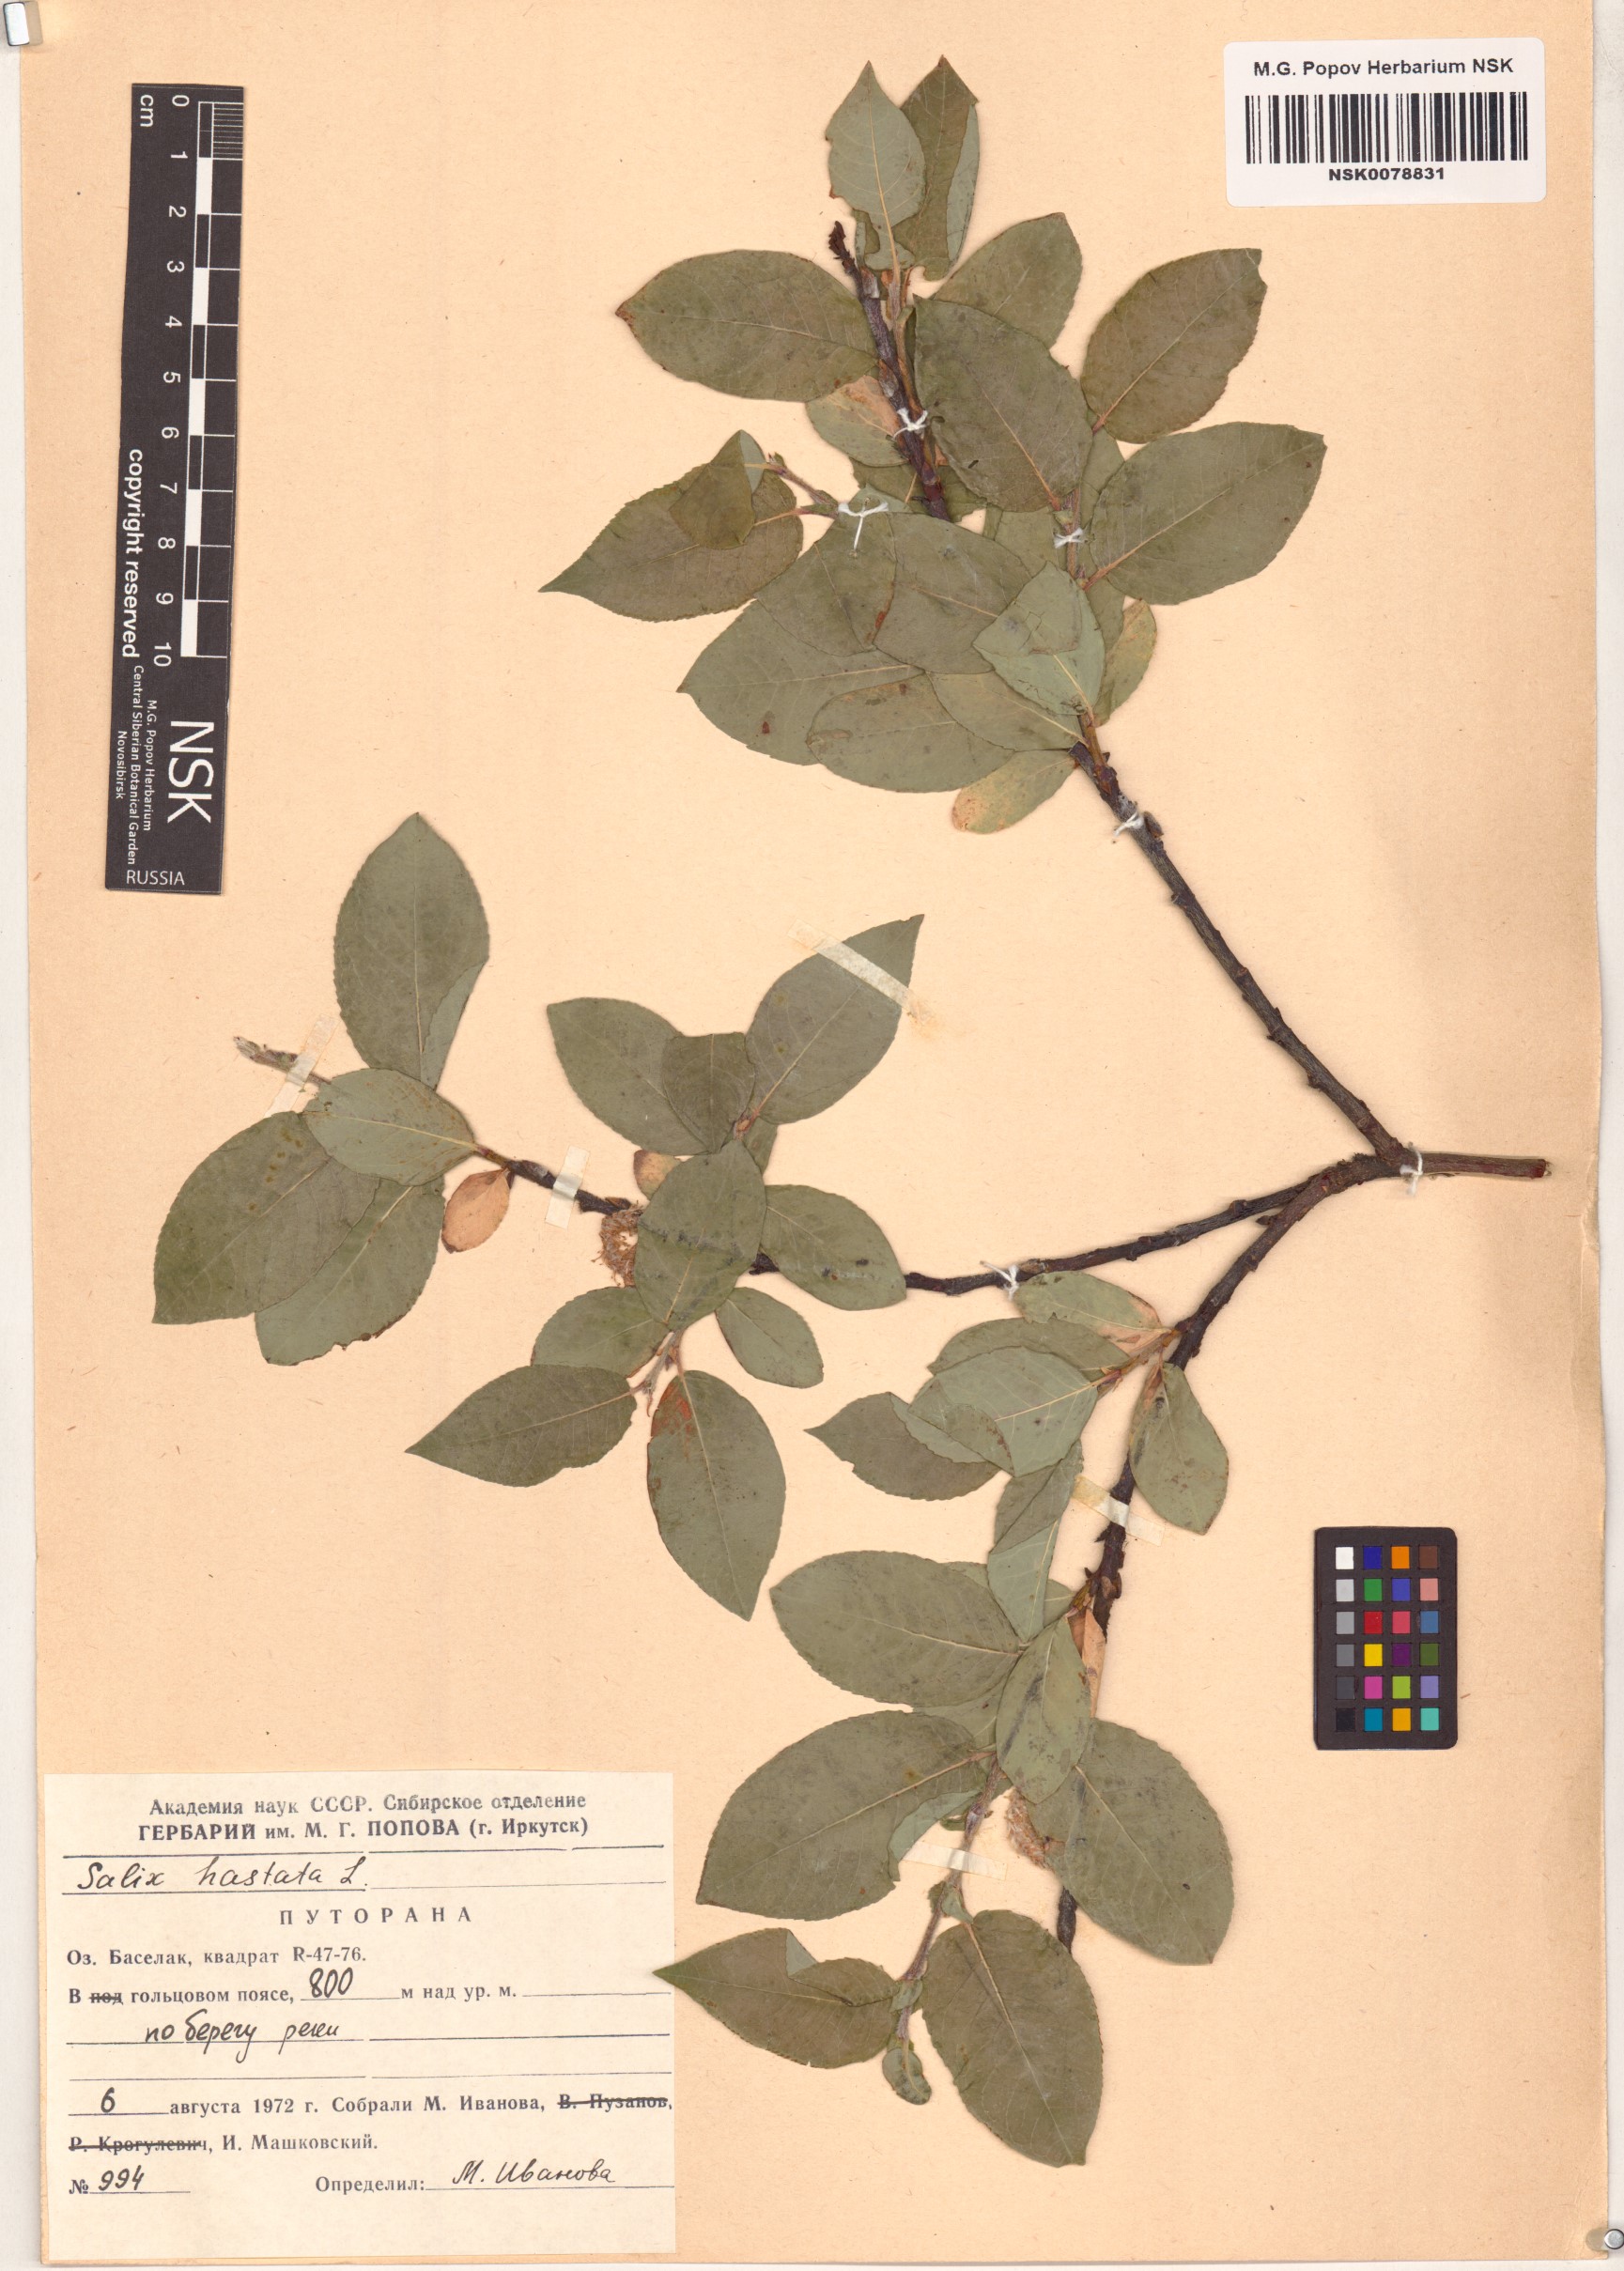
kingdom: Plantae
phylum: Tracheophyta
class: Magnoliopsida
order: Malpighiales
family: Salicaceae
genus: Salix
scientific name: Salix hastata
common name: Halberd willow
